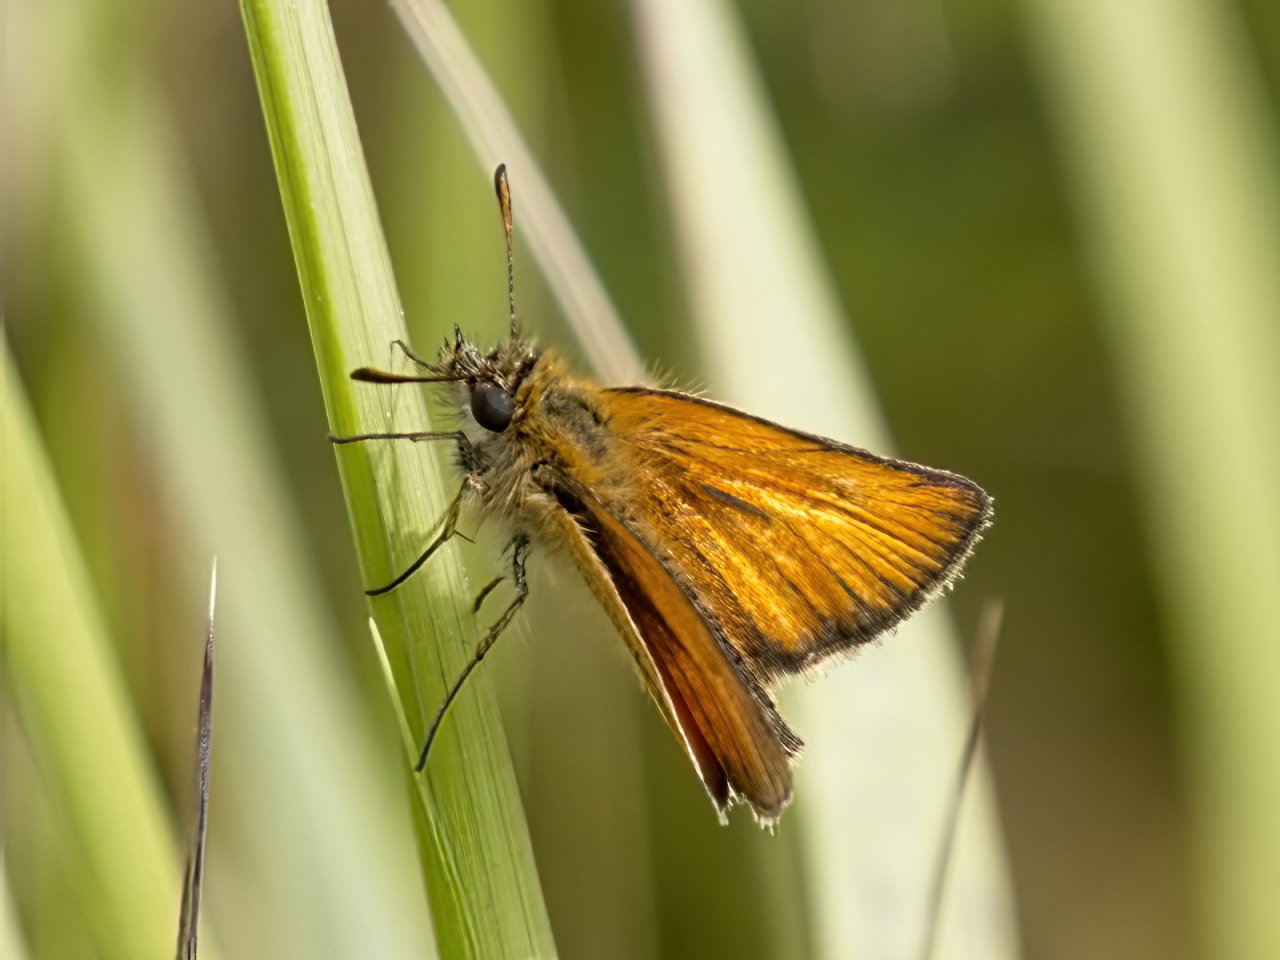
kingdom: Animalia
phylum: Arthropoda
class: Insecta
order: Lepidoptera
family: Hesperiidae
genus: Thymelicus
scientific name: Thymelicus lineola
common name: European Skipper
